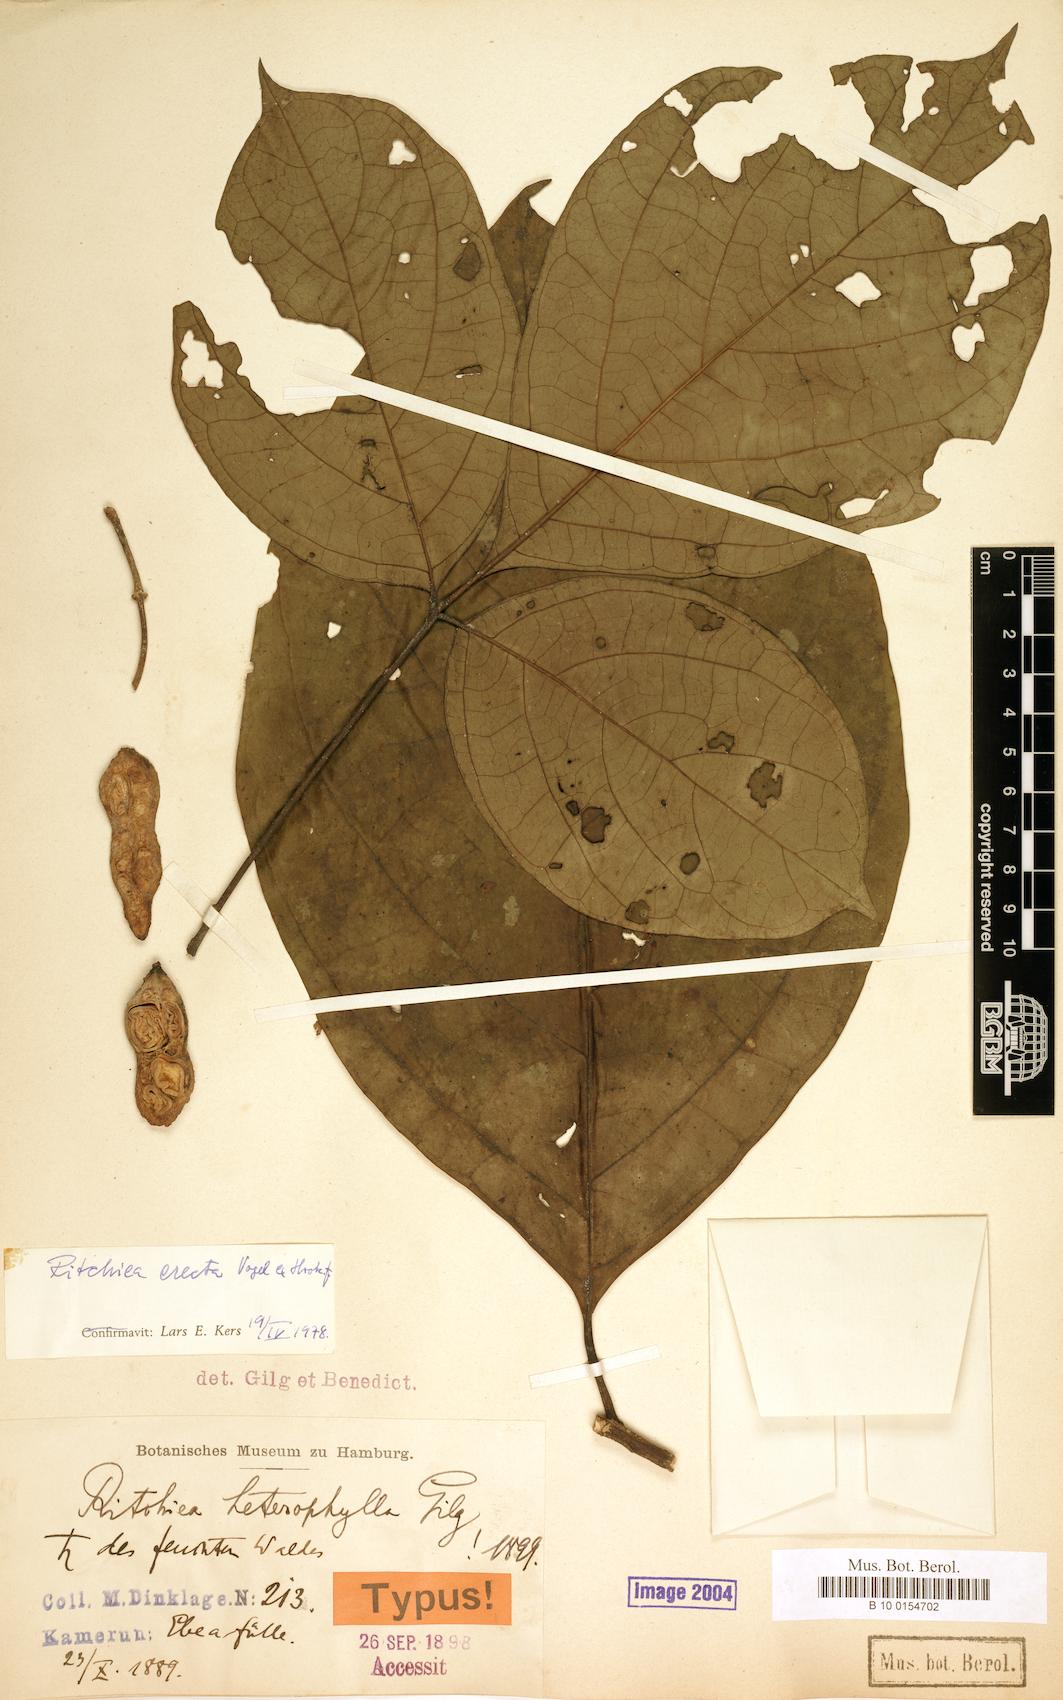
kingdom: Plantae
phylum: Tracheophyta
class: Magnoliopsida
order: Brassicales
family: Capparaceae
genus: Ritchiea
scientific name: Ritchiea erecta
